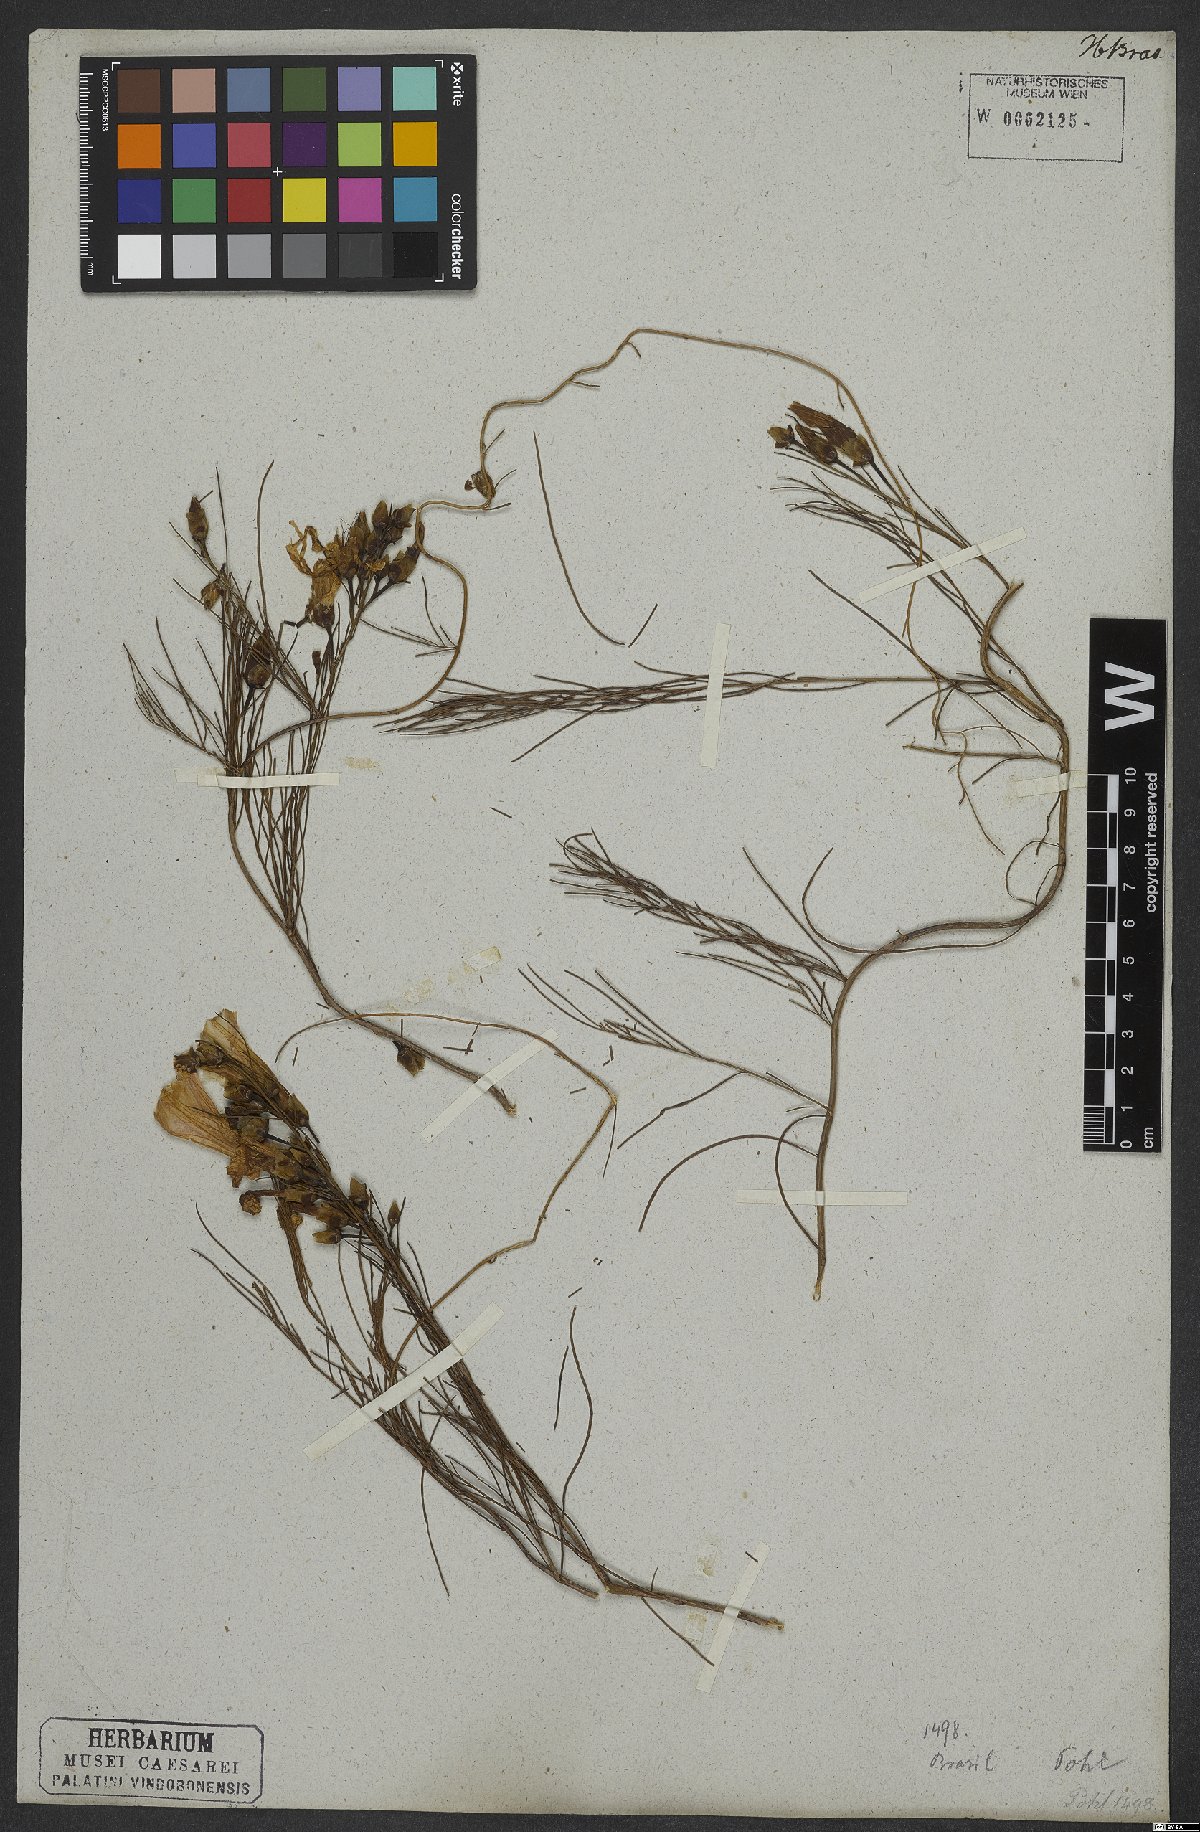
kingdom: Plantae
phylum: Tracheophyta
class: Magnoliopsida
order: Solanales
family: Convolvulaceae
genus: Ipomoea
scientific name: Ipomoea pinifolia
